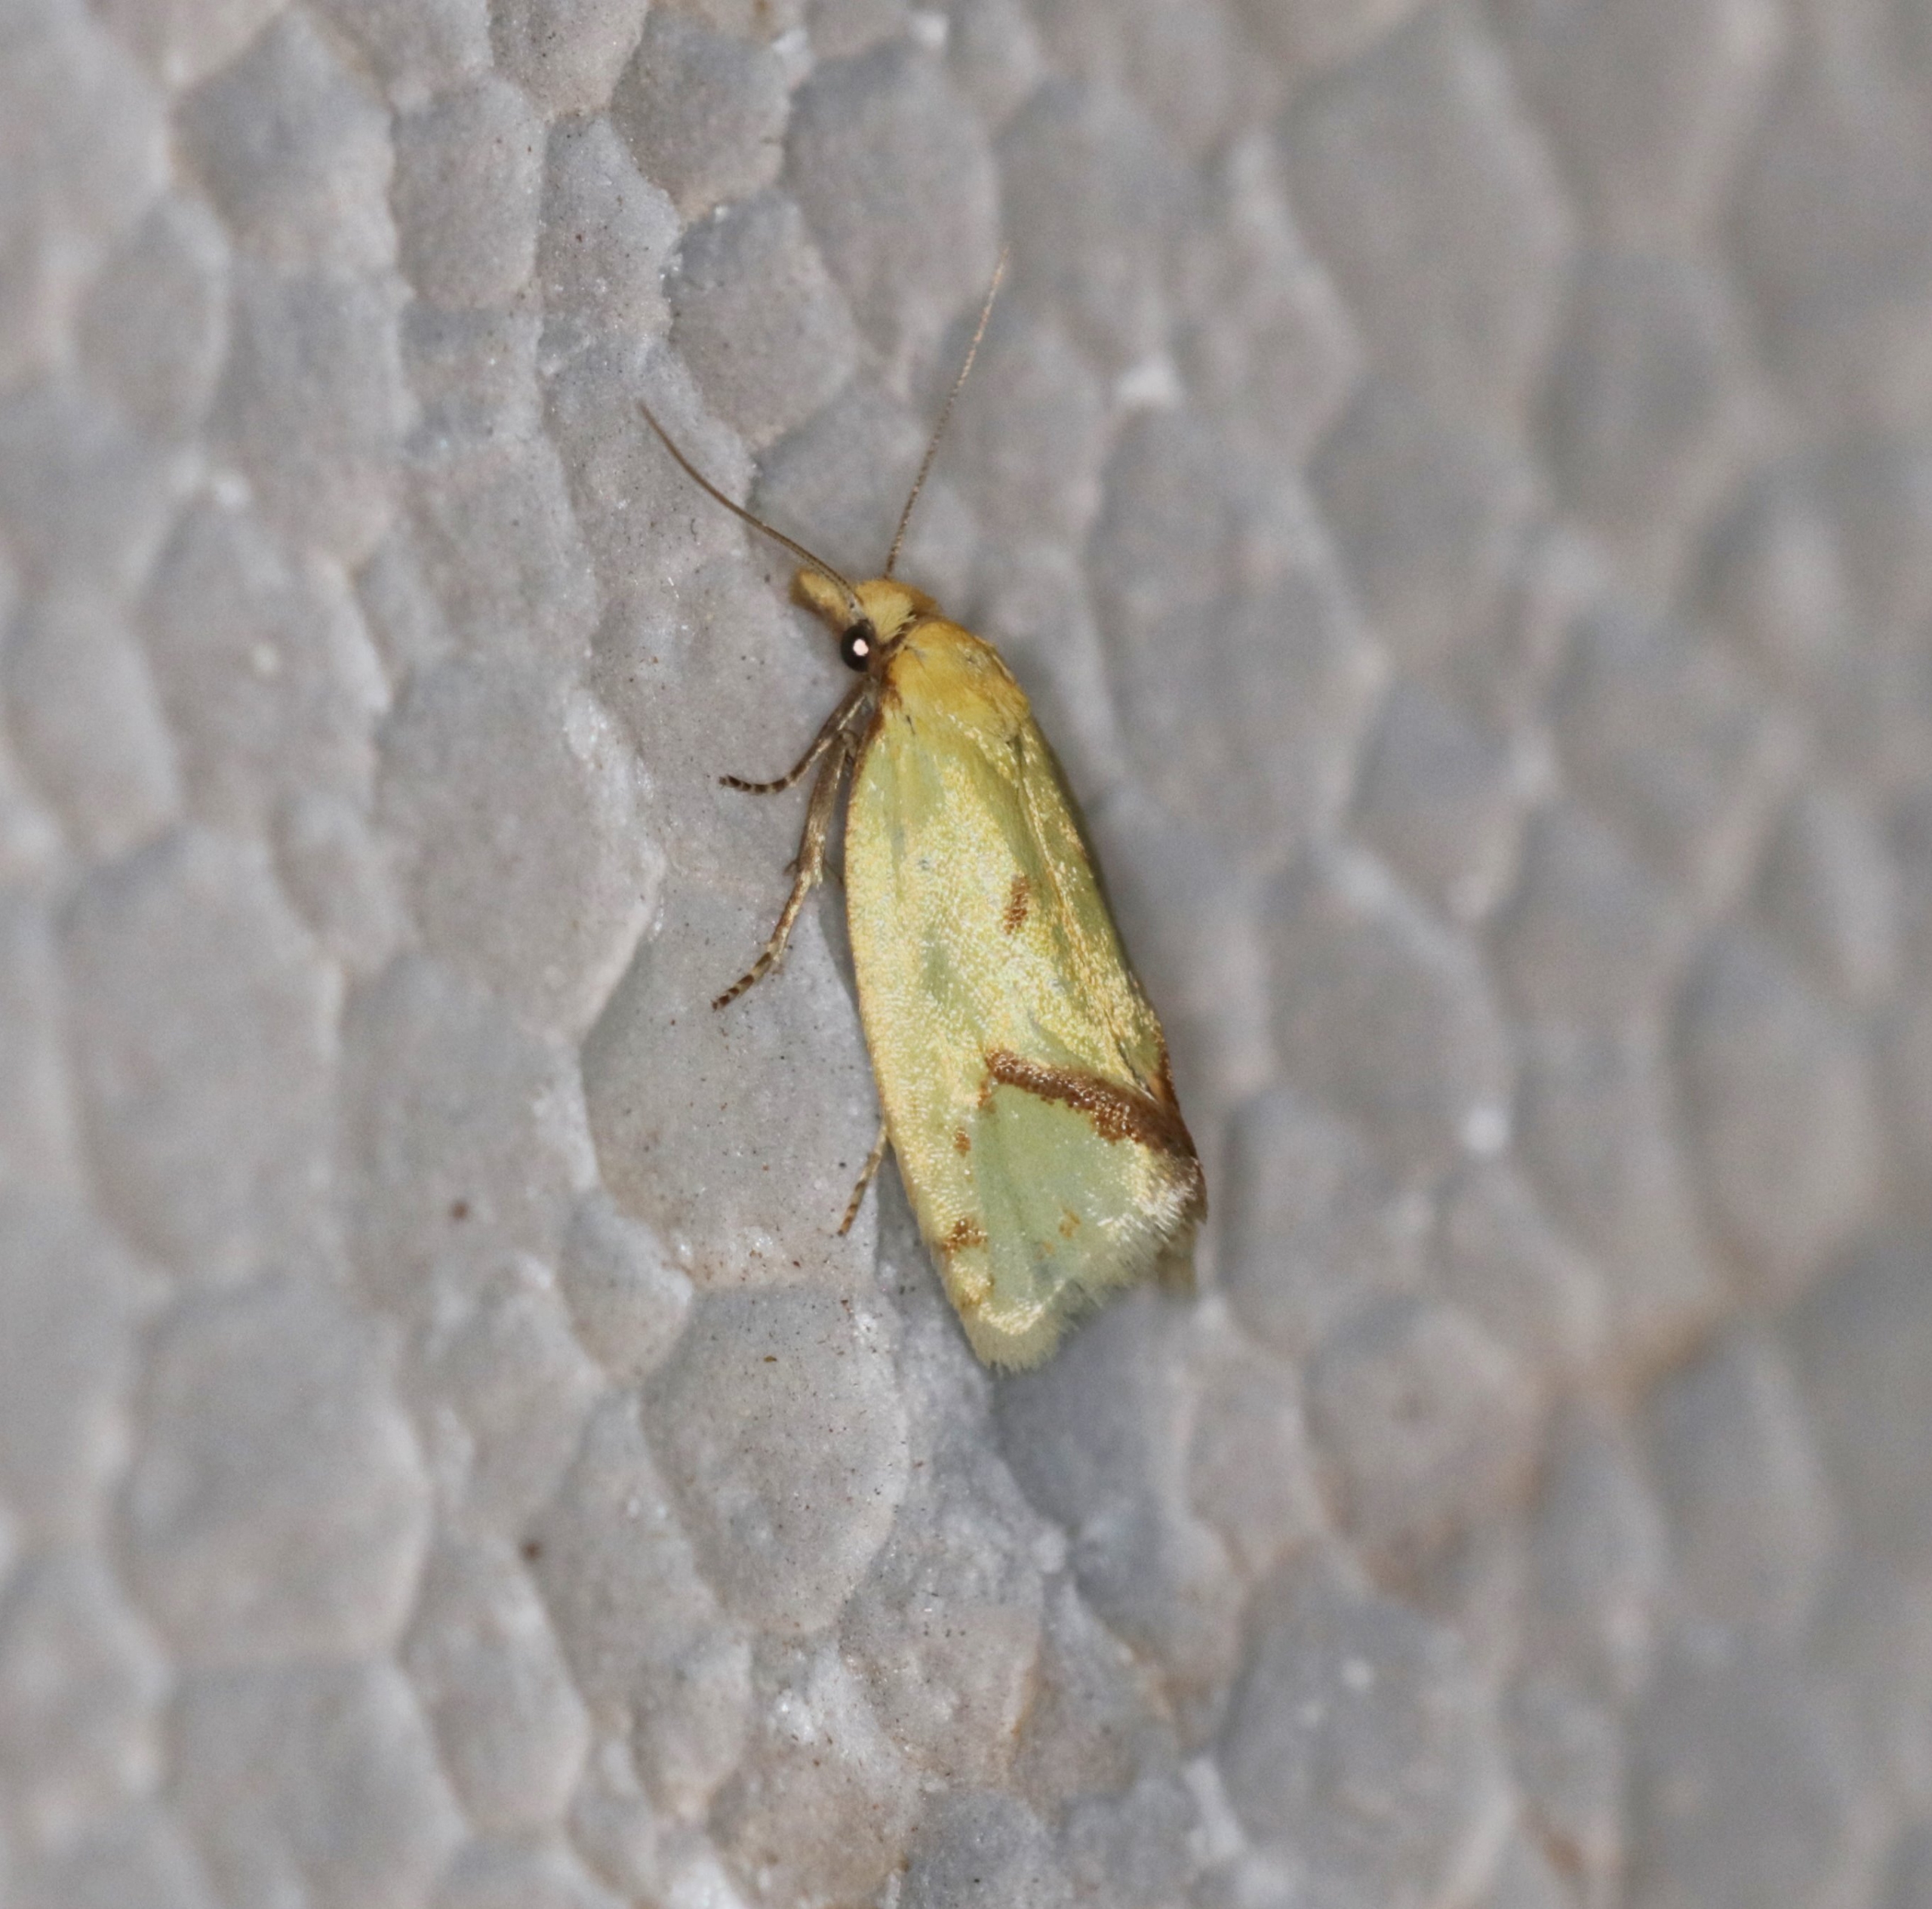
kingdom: Animalia
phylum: Arthropoda
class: Insecta
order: Lepidoptera
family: Tortricidae
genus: Agapeta
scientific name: Agapeta hamana
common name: Tidselgulvikler
